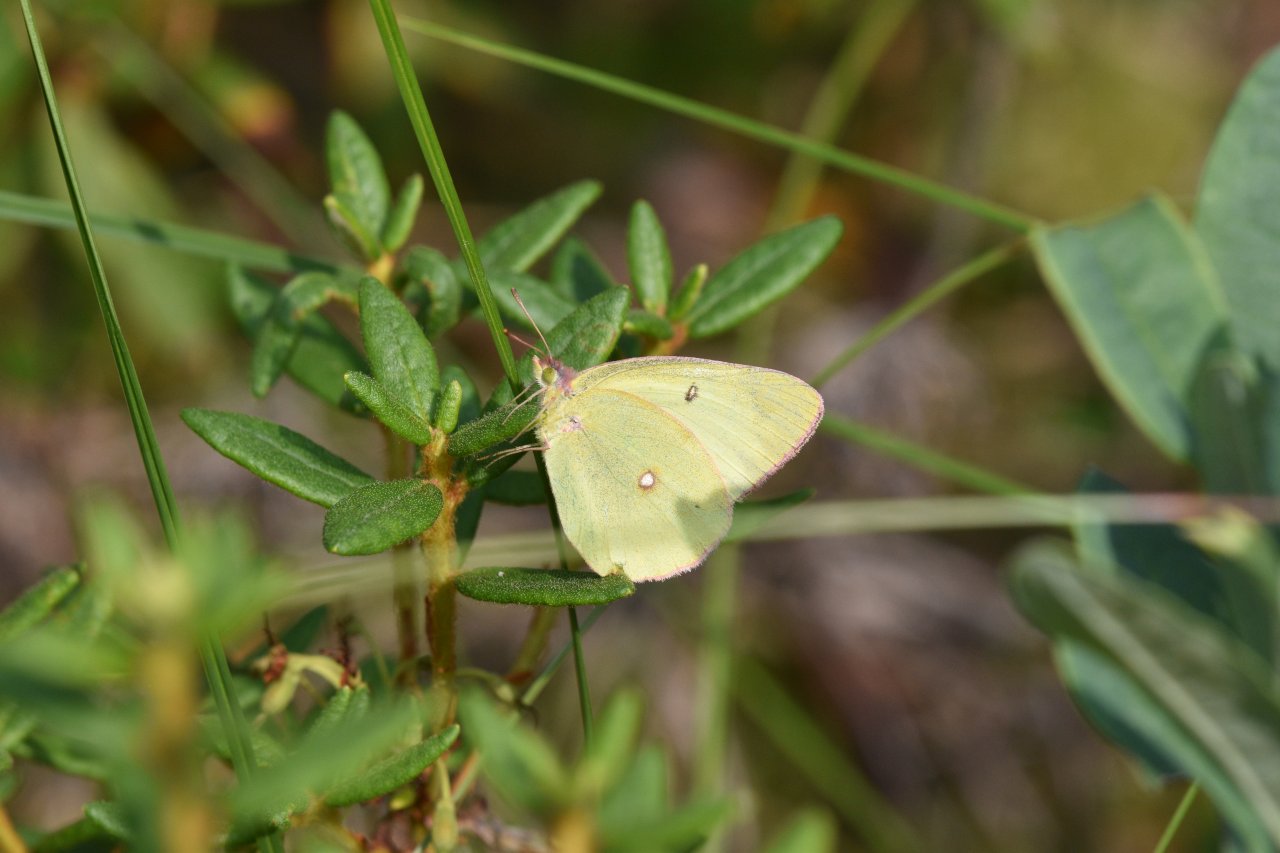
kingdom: Animalia
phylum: Arthropoda
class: Insecta
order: Lepidoptera
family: Pieridae
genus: Colias
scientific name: Colias interior
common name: Pink-edged Sulphur
